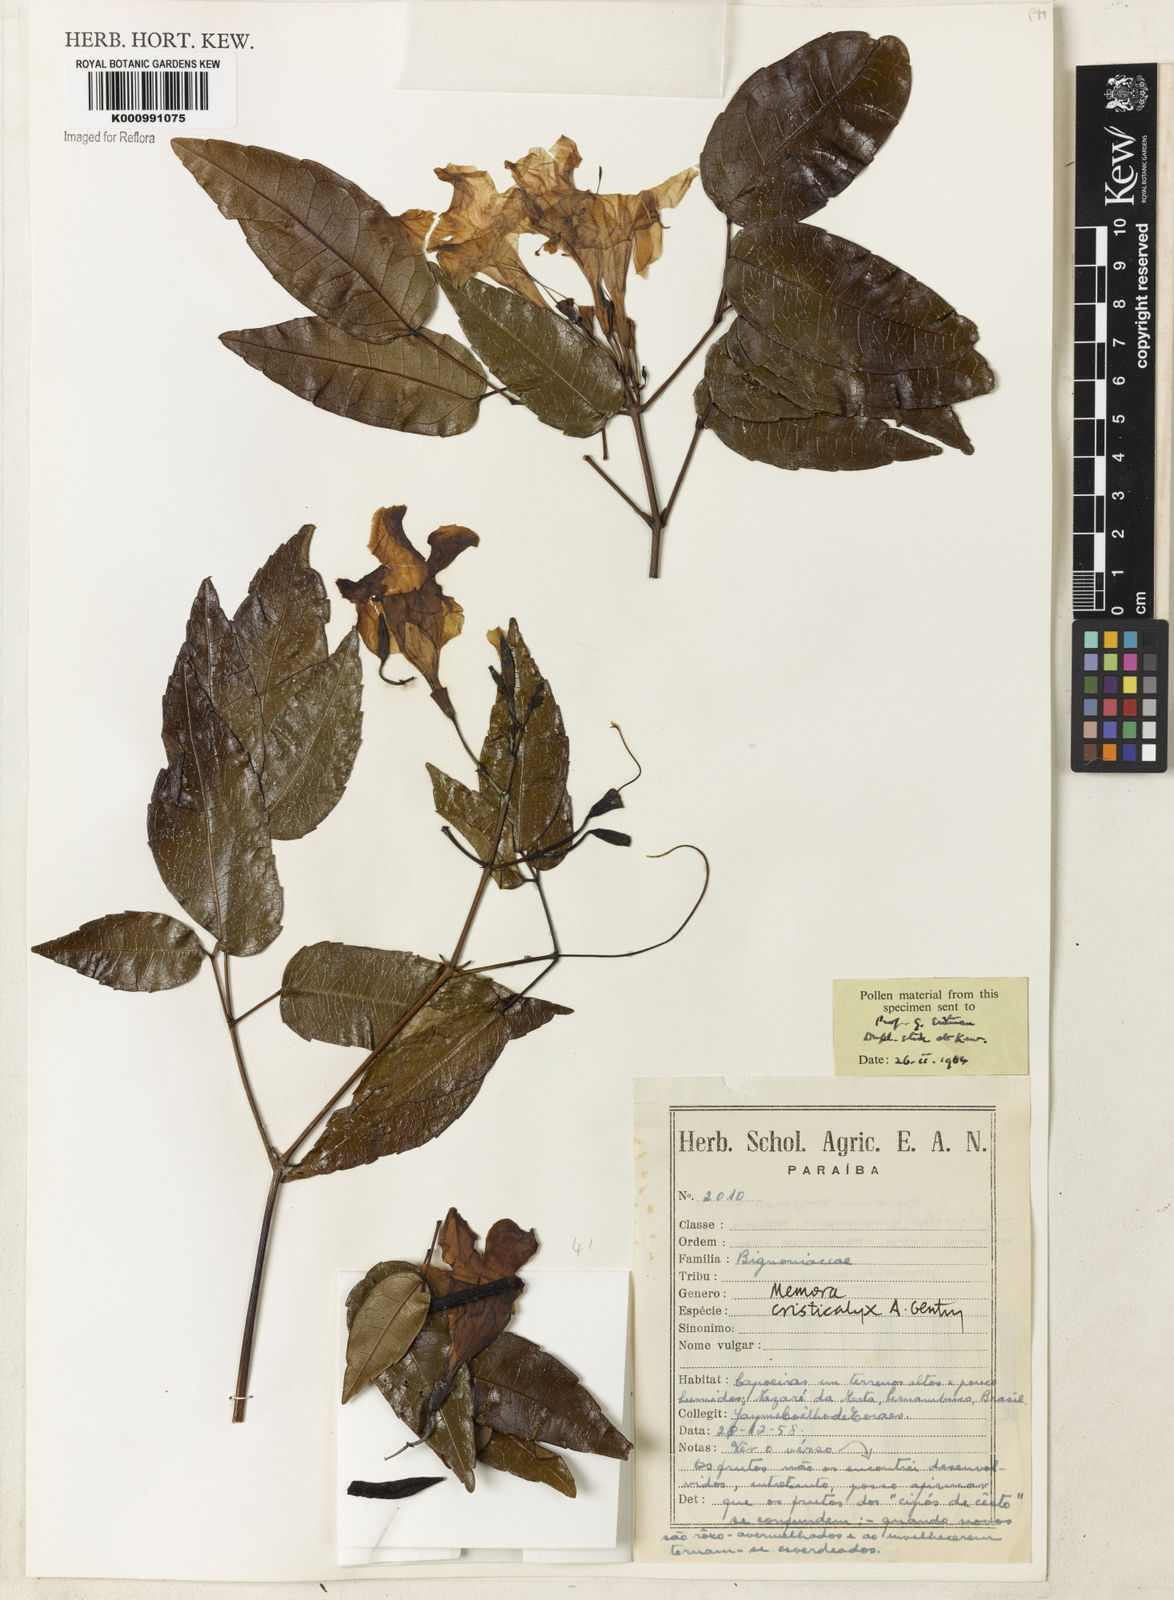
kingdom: Plantae
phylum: Tracheophyta
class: Magnoliopsida
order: Lamiales
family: Bignoniaceae
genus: Adenocalymma
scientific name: Adenocalymma cristicalyx
